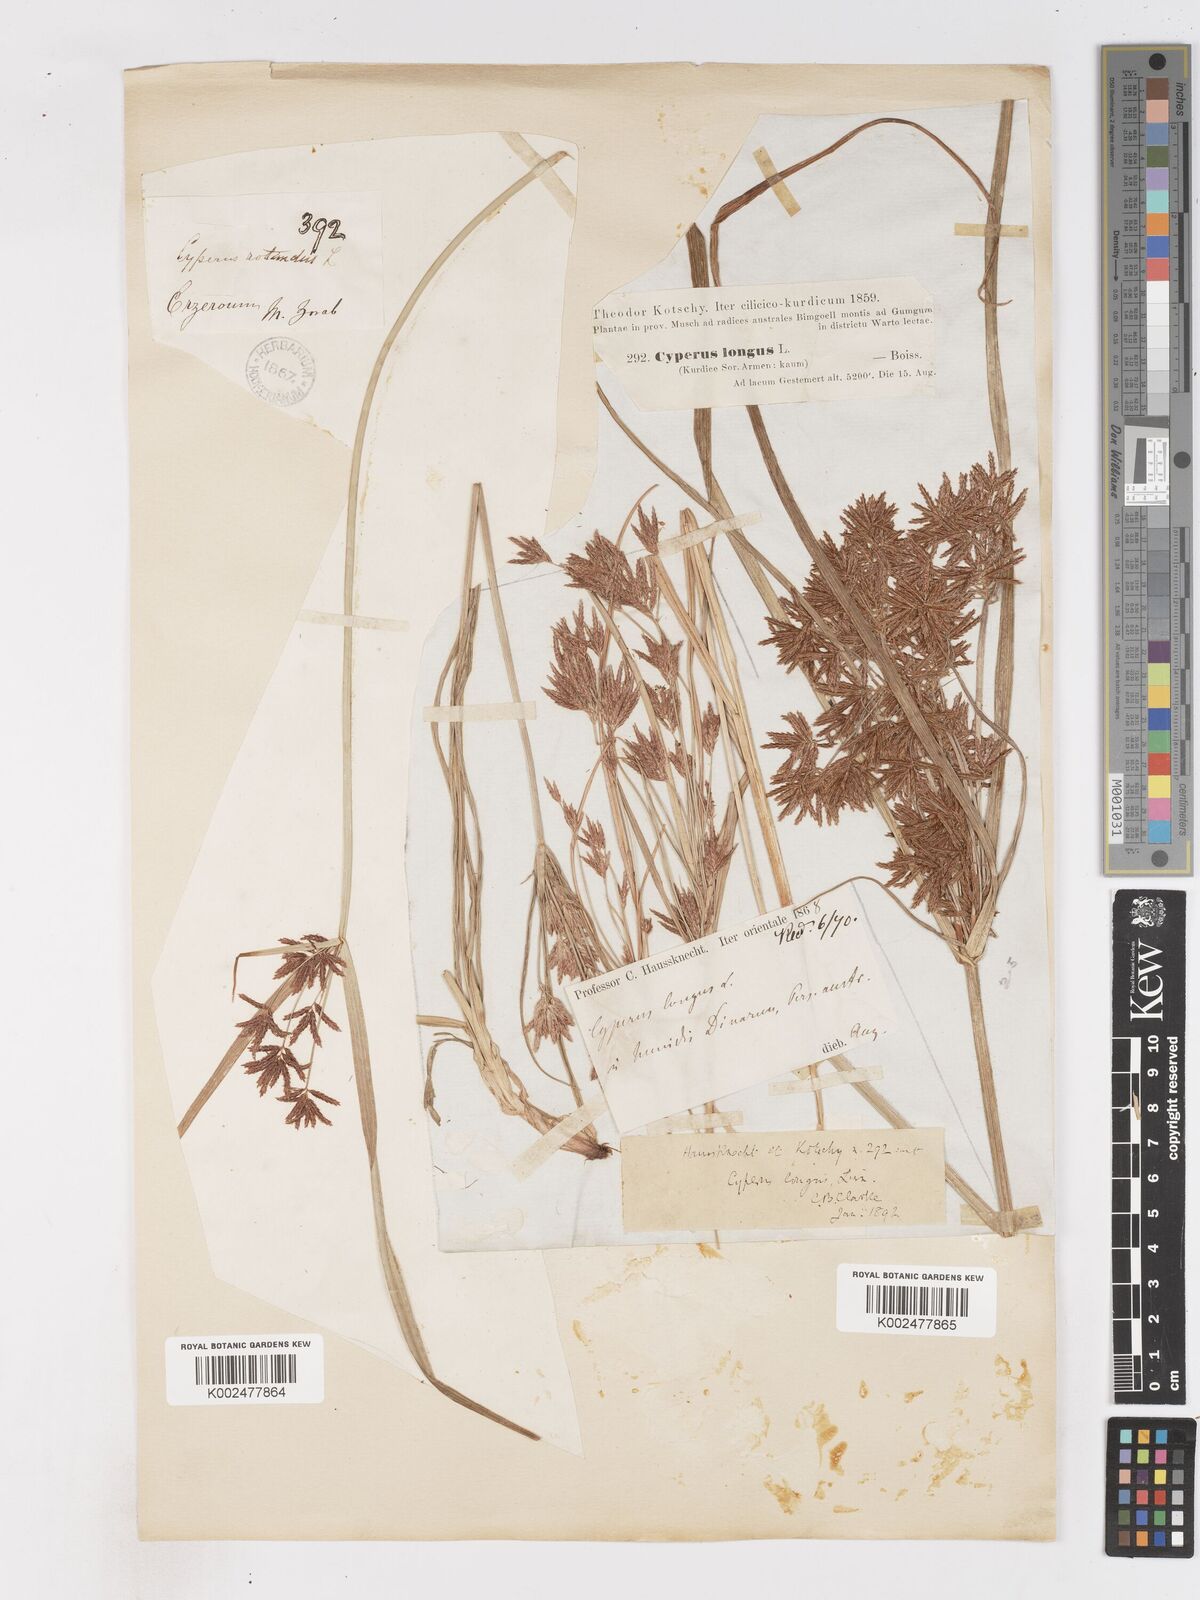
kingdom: Plantae
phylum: Tracheophyta
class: Liliopsida
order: Poales
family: Cyperaceae
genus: Cyperus
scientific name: Cyperus longus
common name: Galingale
